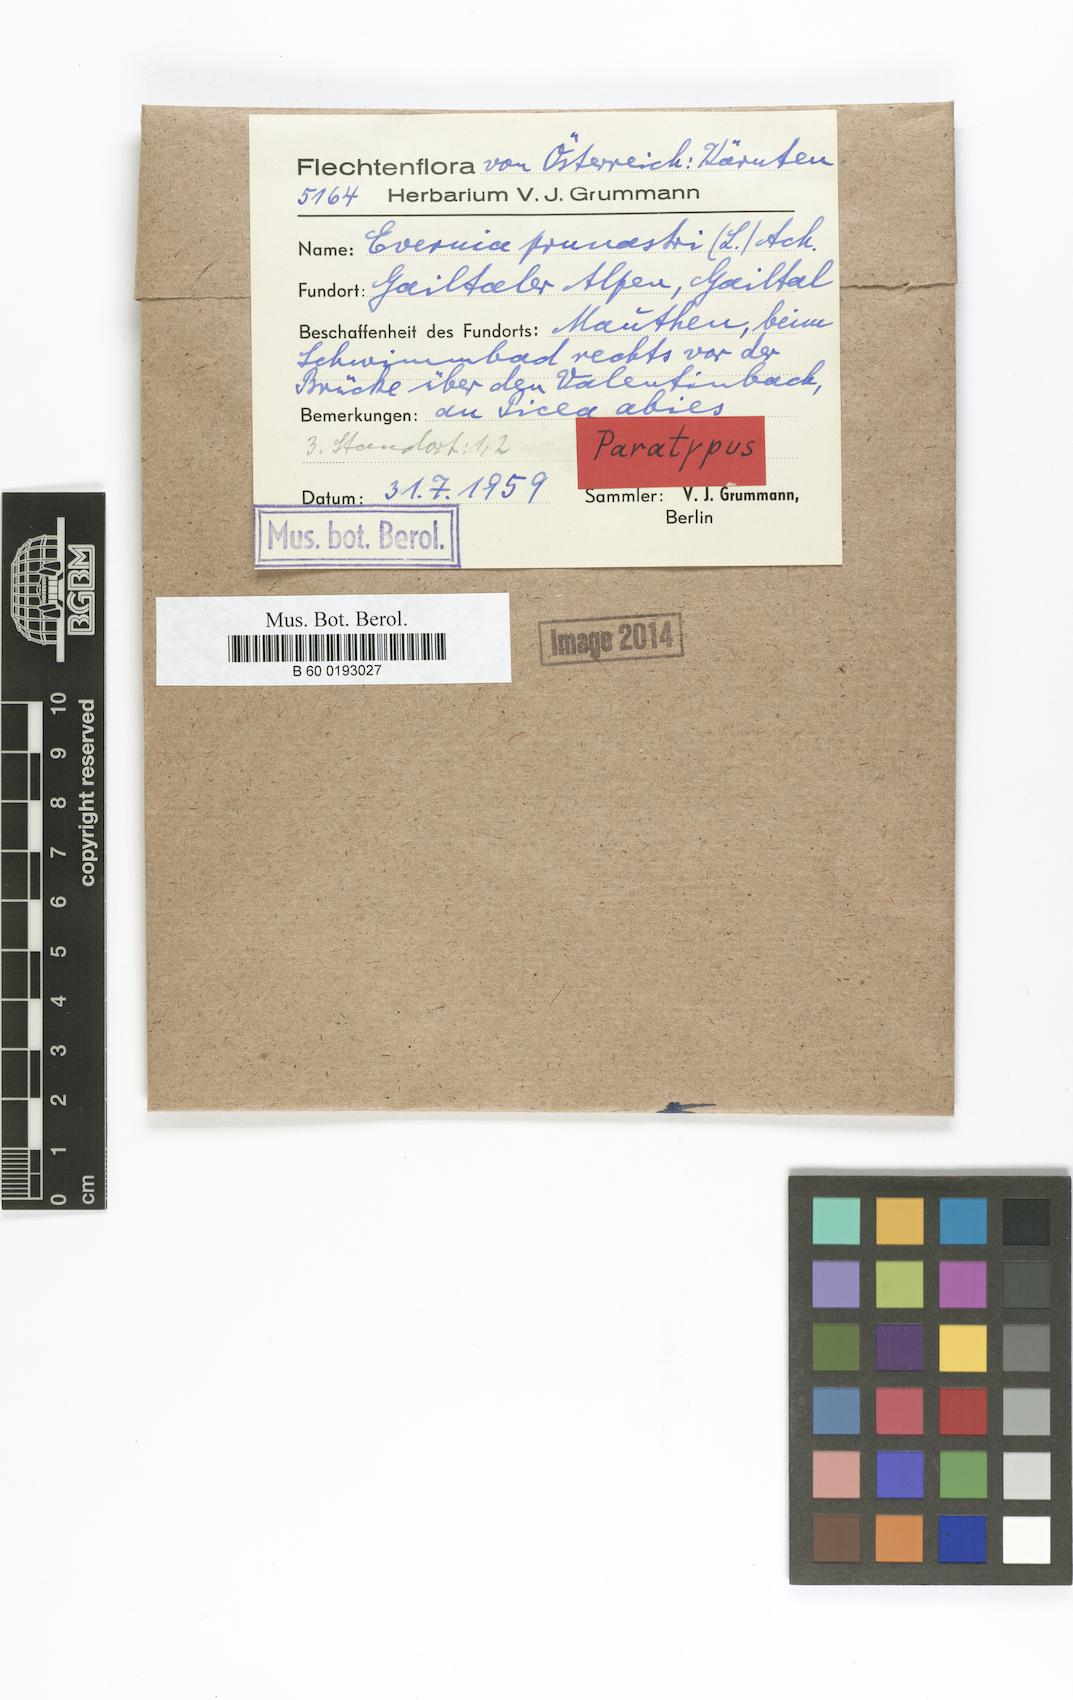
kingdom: Fungi
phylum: Ascomycota
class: Lecanoromycetes
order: Lecanorales
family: Parmeliaceae
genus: Evernia
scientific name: Evernia prunastri
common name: Oak moss
